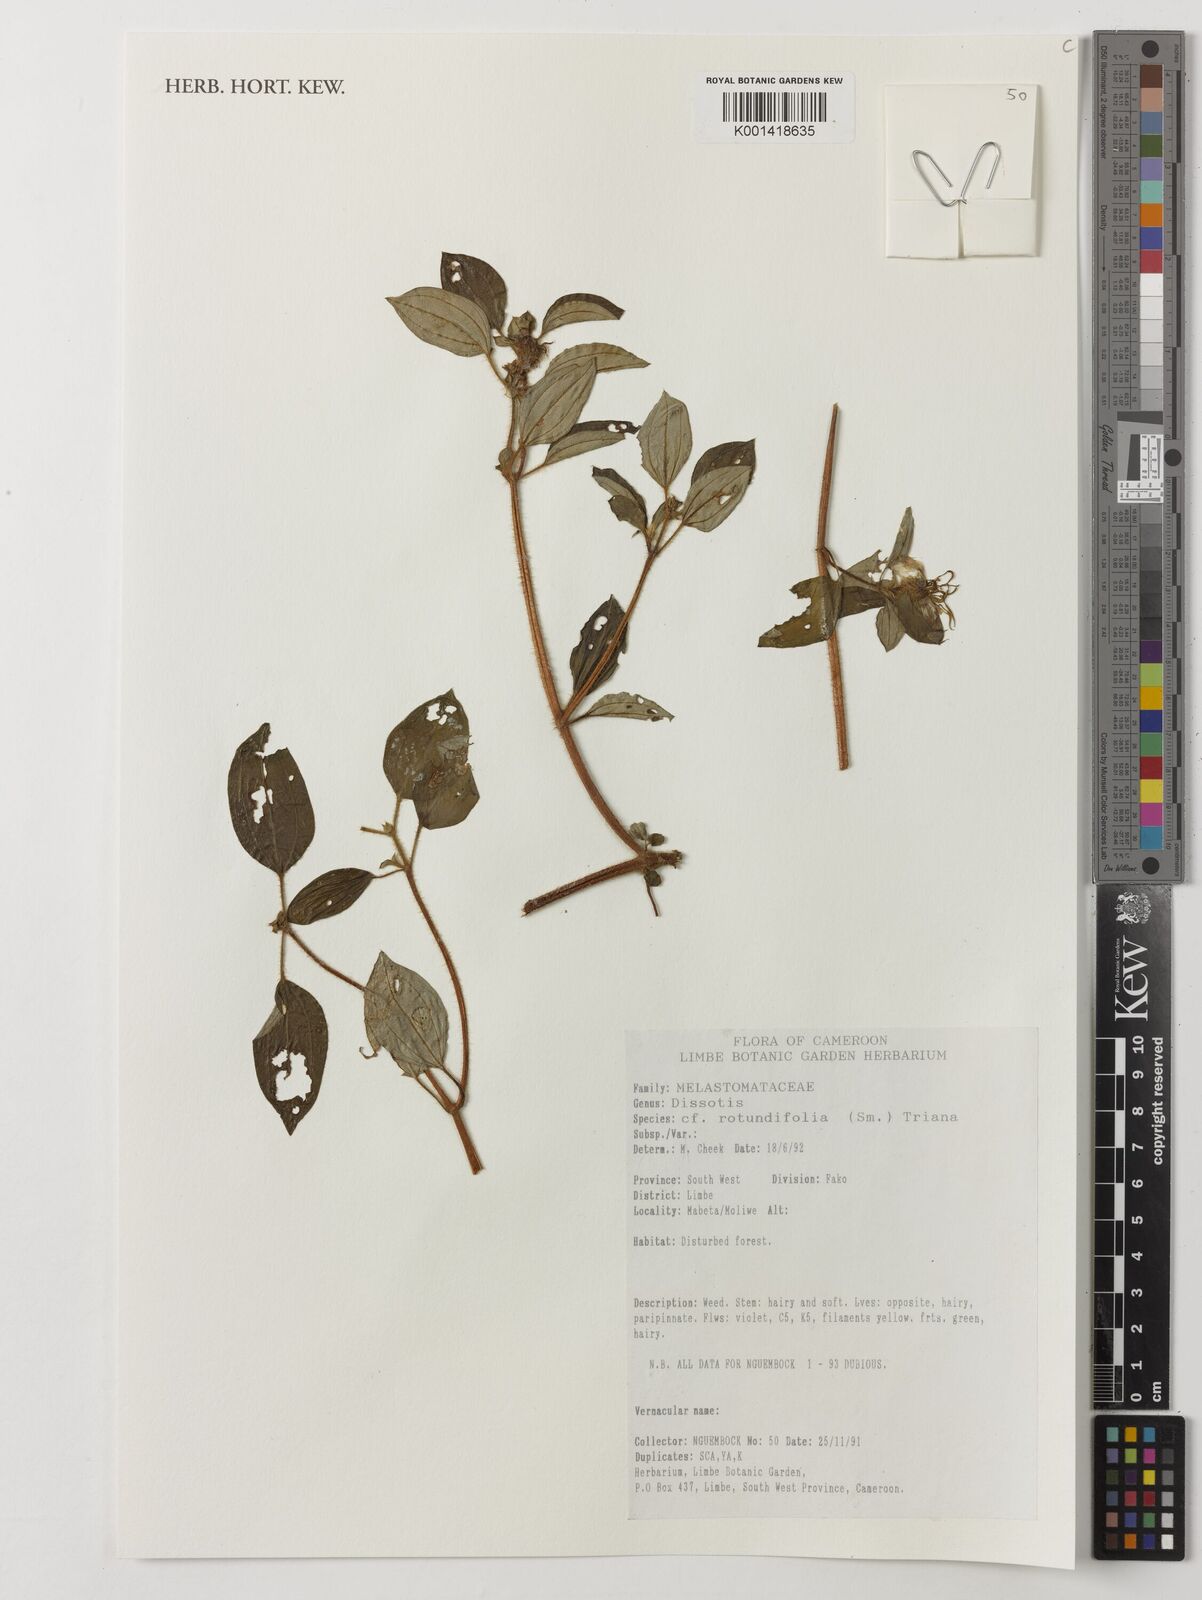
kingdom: Plantae
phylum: Tracheophyta
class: Magnoliopsida
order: Myrtales
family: Melastomataceae
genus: Heterotis
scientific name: Heterotis rotundifolia
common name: Pinklady
